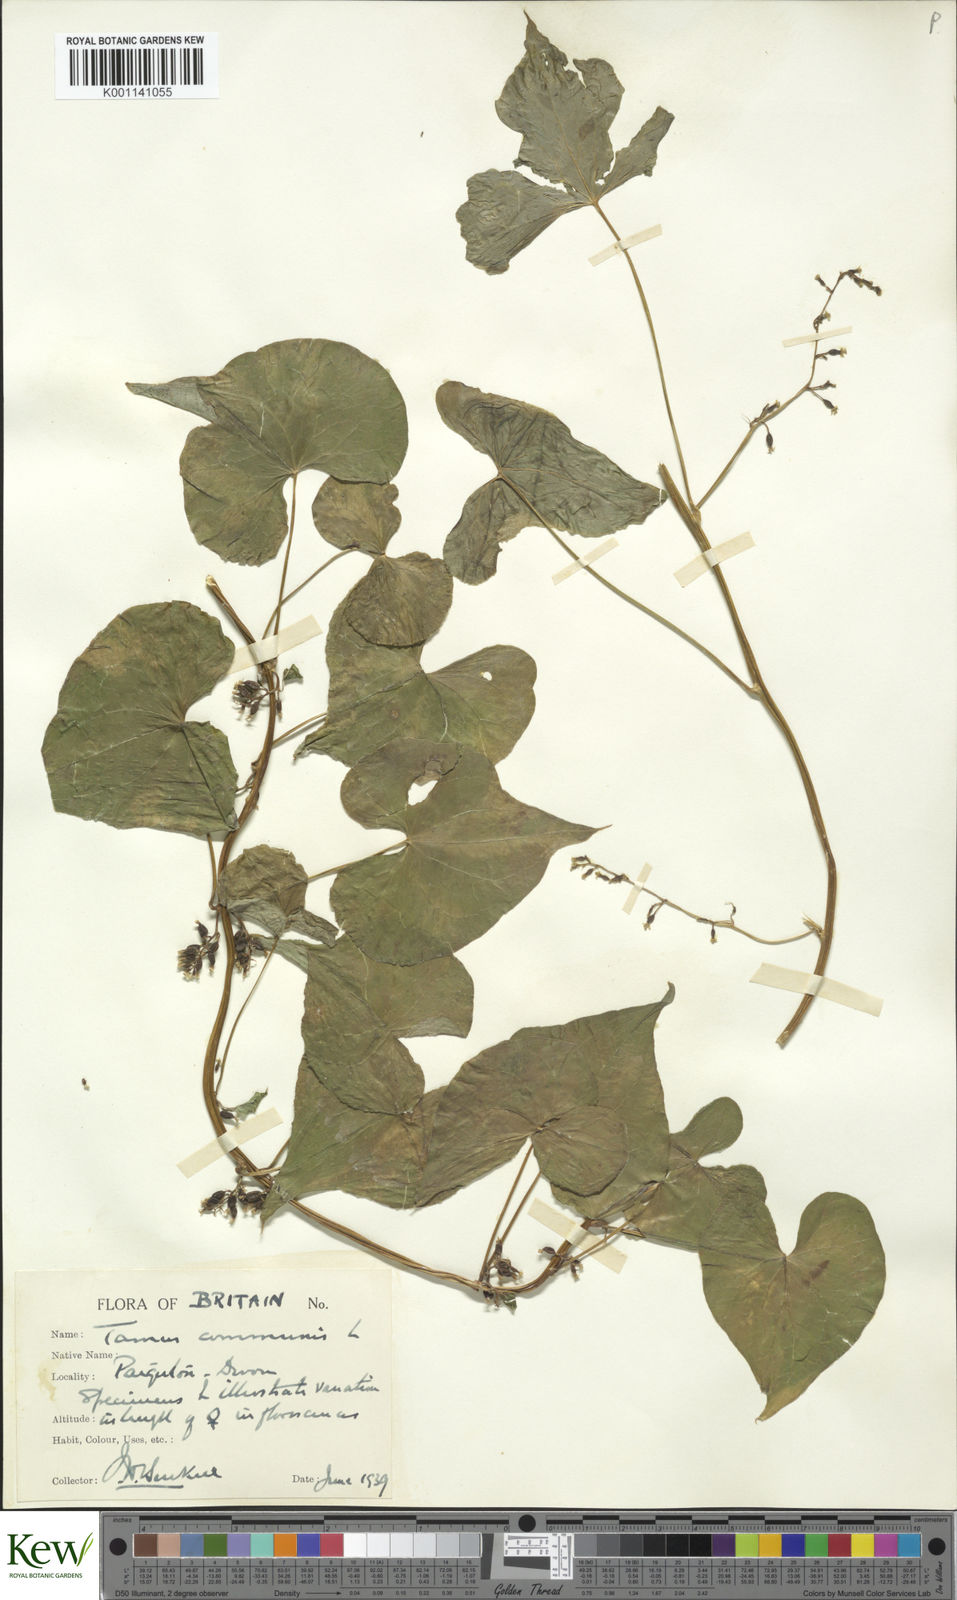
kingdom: Plantae
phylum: Tracheophyta
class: Liliopsida
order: Dioscoreales
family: Dioscoreaceae
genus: Dioscorea
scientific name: Dioscorea communis
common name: Black-bindweed
